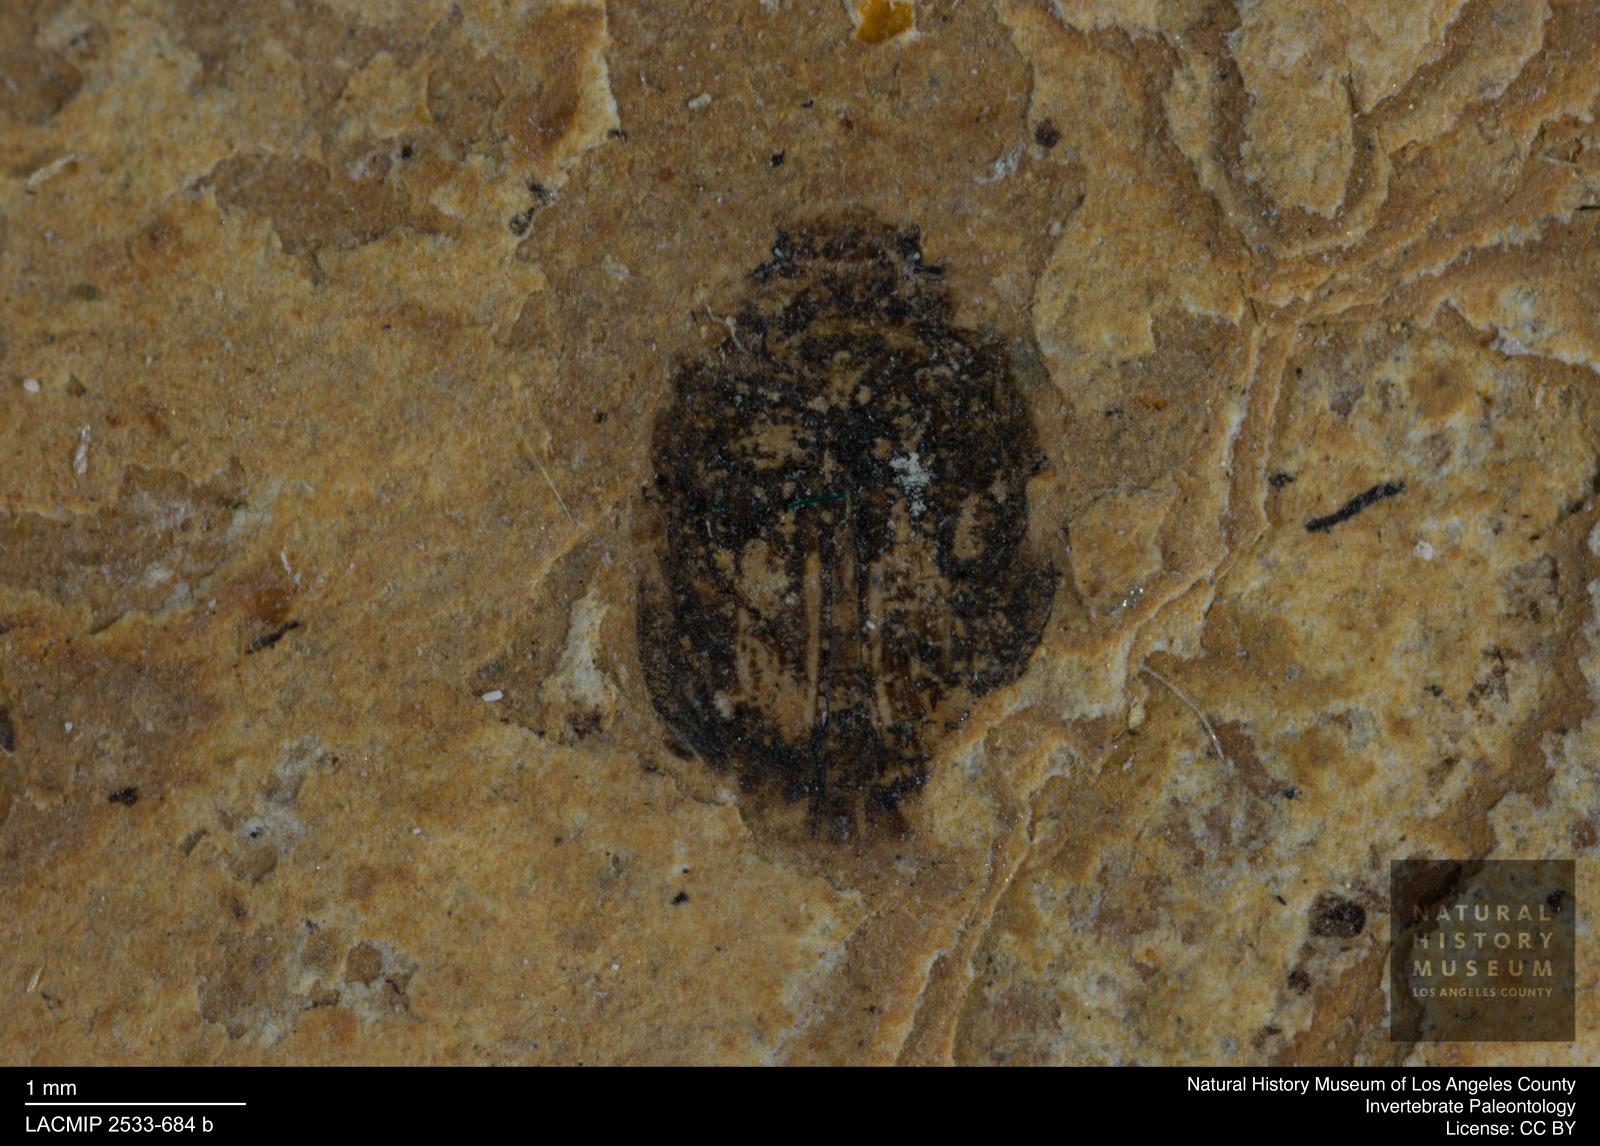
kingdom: Animalia
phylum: Arthropoda
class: Insecta
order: Coleoptera
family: Dytiscidae
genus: Oreodytes
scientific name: Oreodytes cryptolineatus
